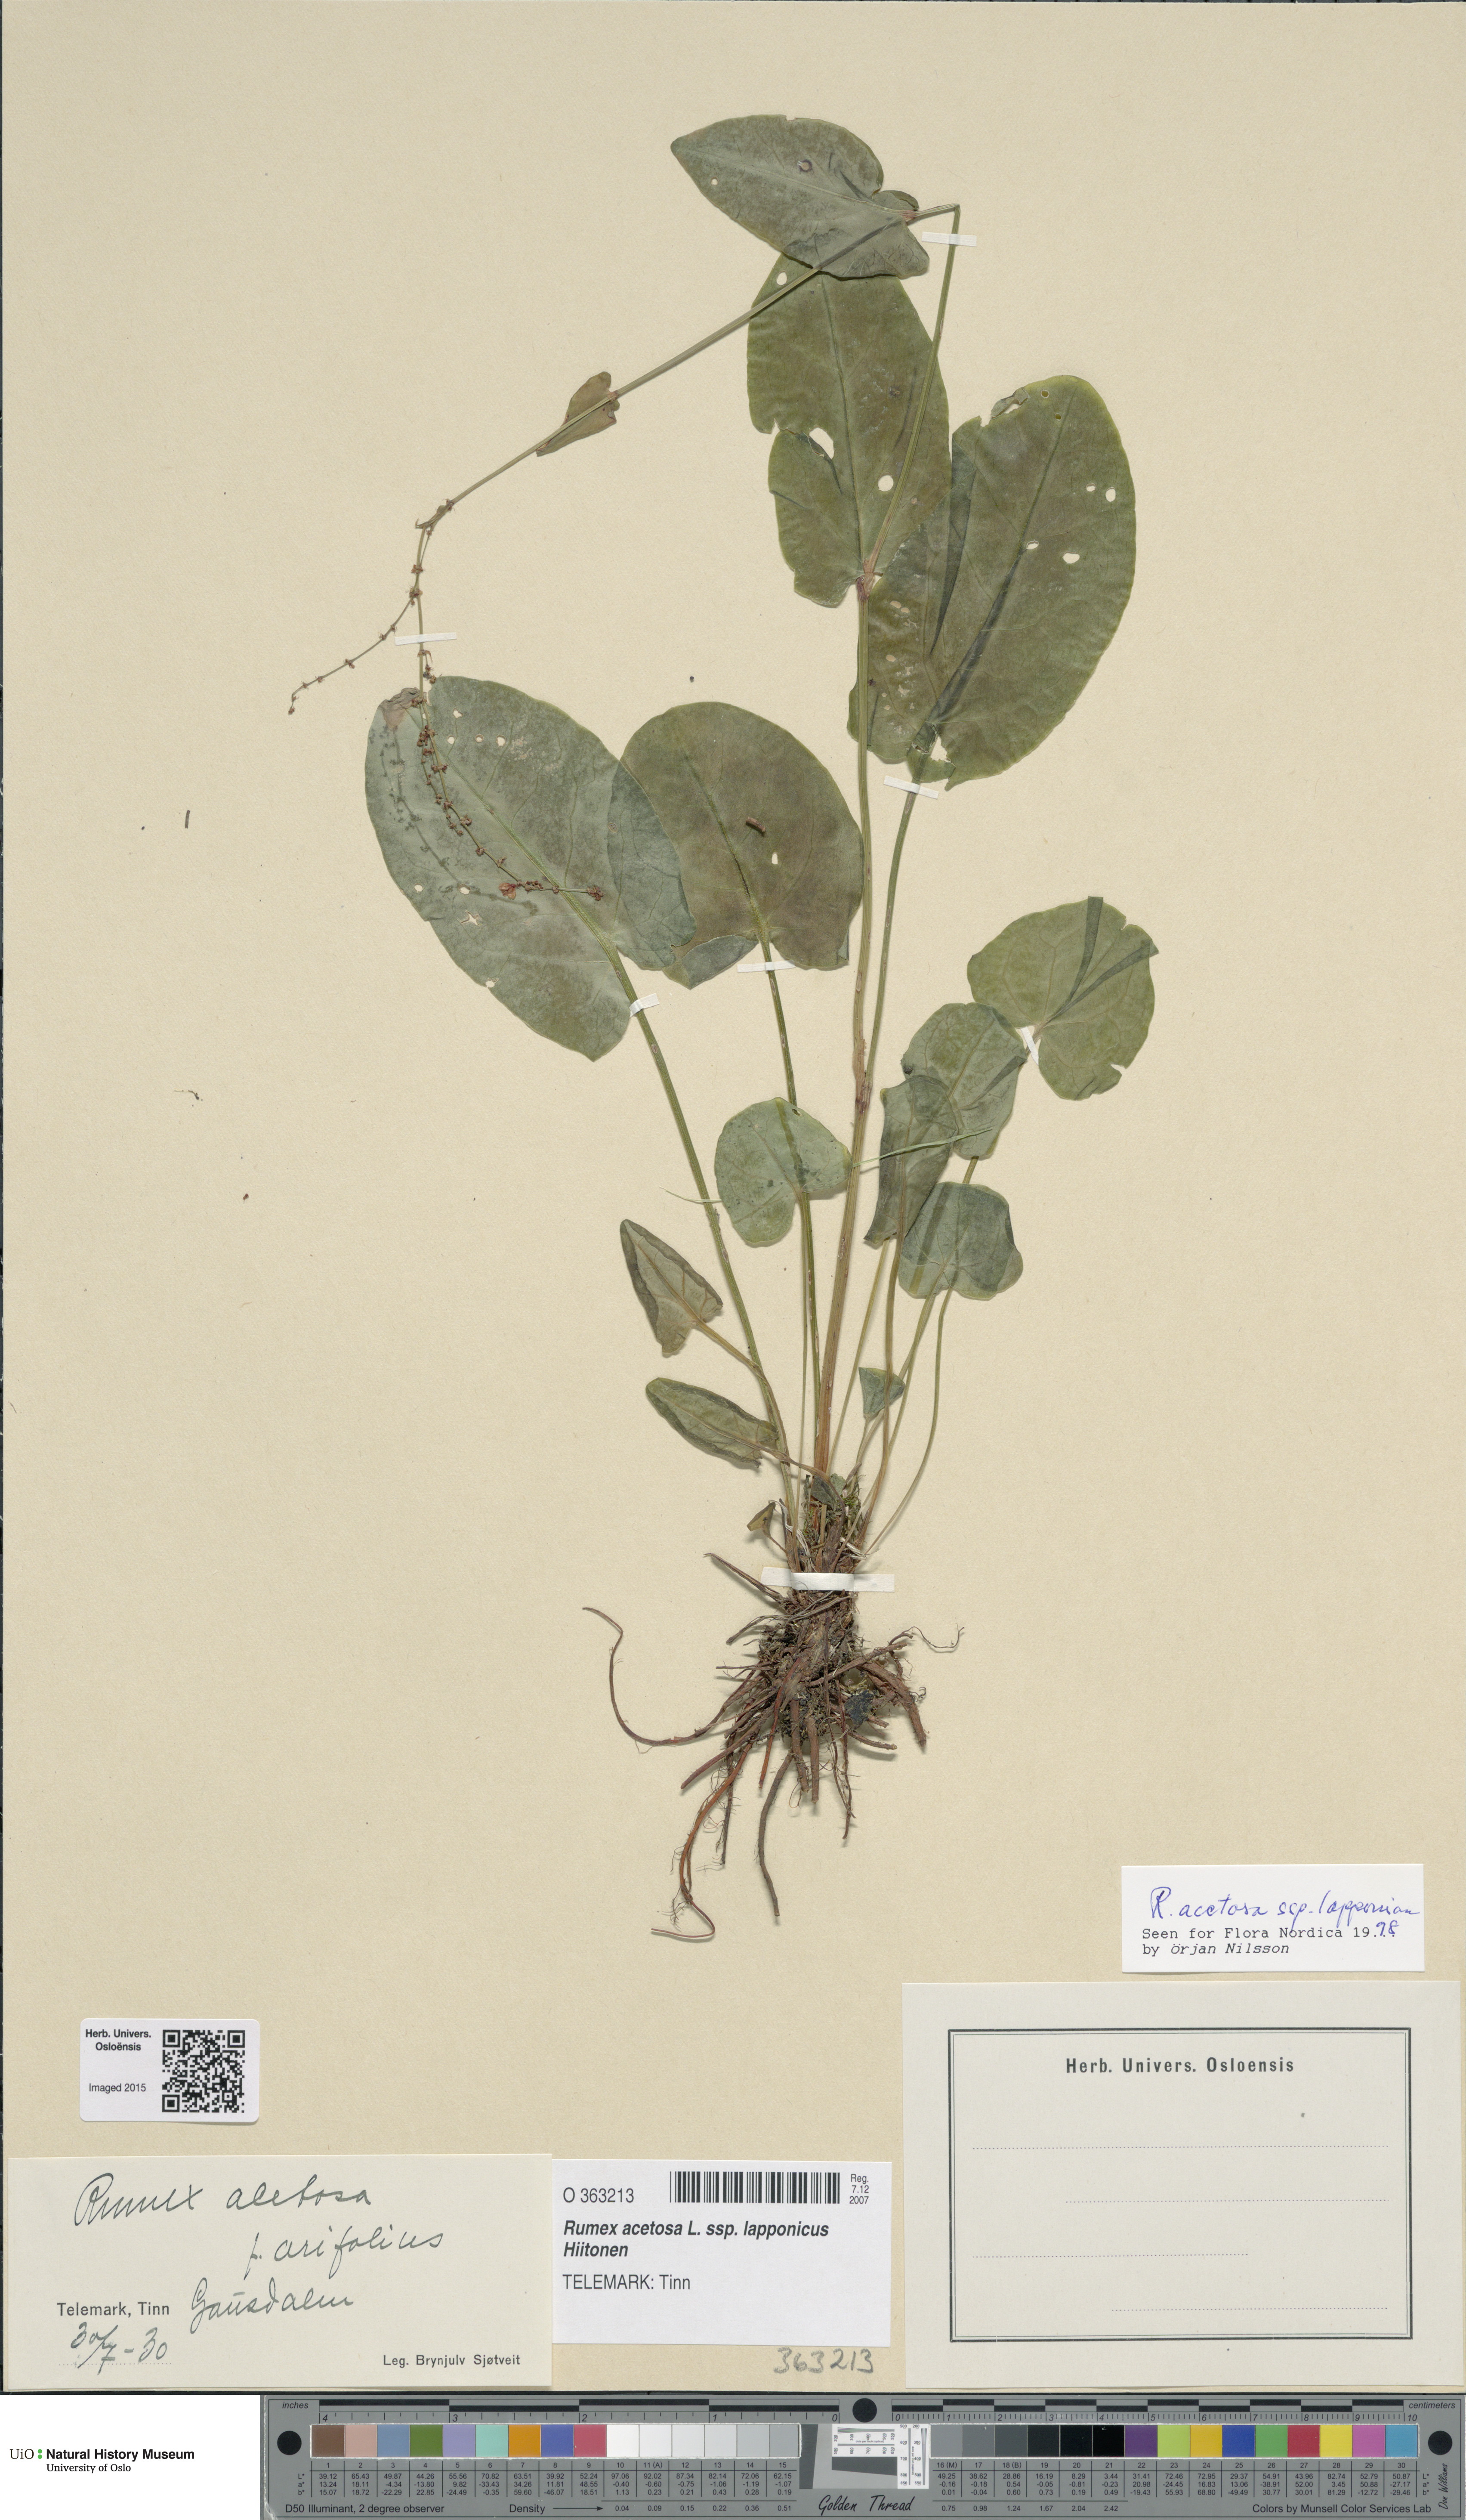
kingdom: Plantae
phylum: Tracheophyta
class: Magnoliopsida
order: Caryophyllales
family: Polygonaceae
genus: Rumex
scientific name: Rumex lapponicus
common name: Lapland mountain sorrel
